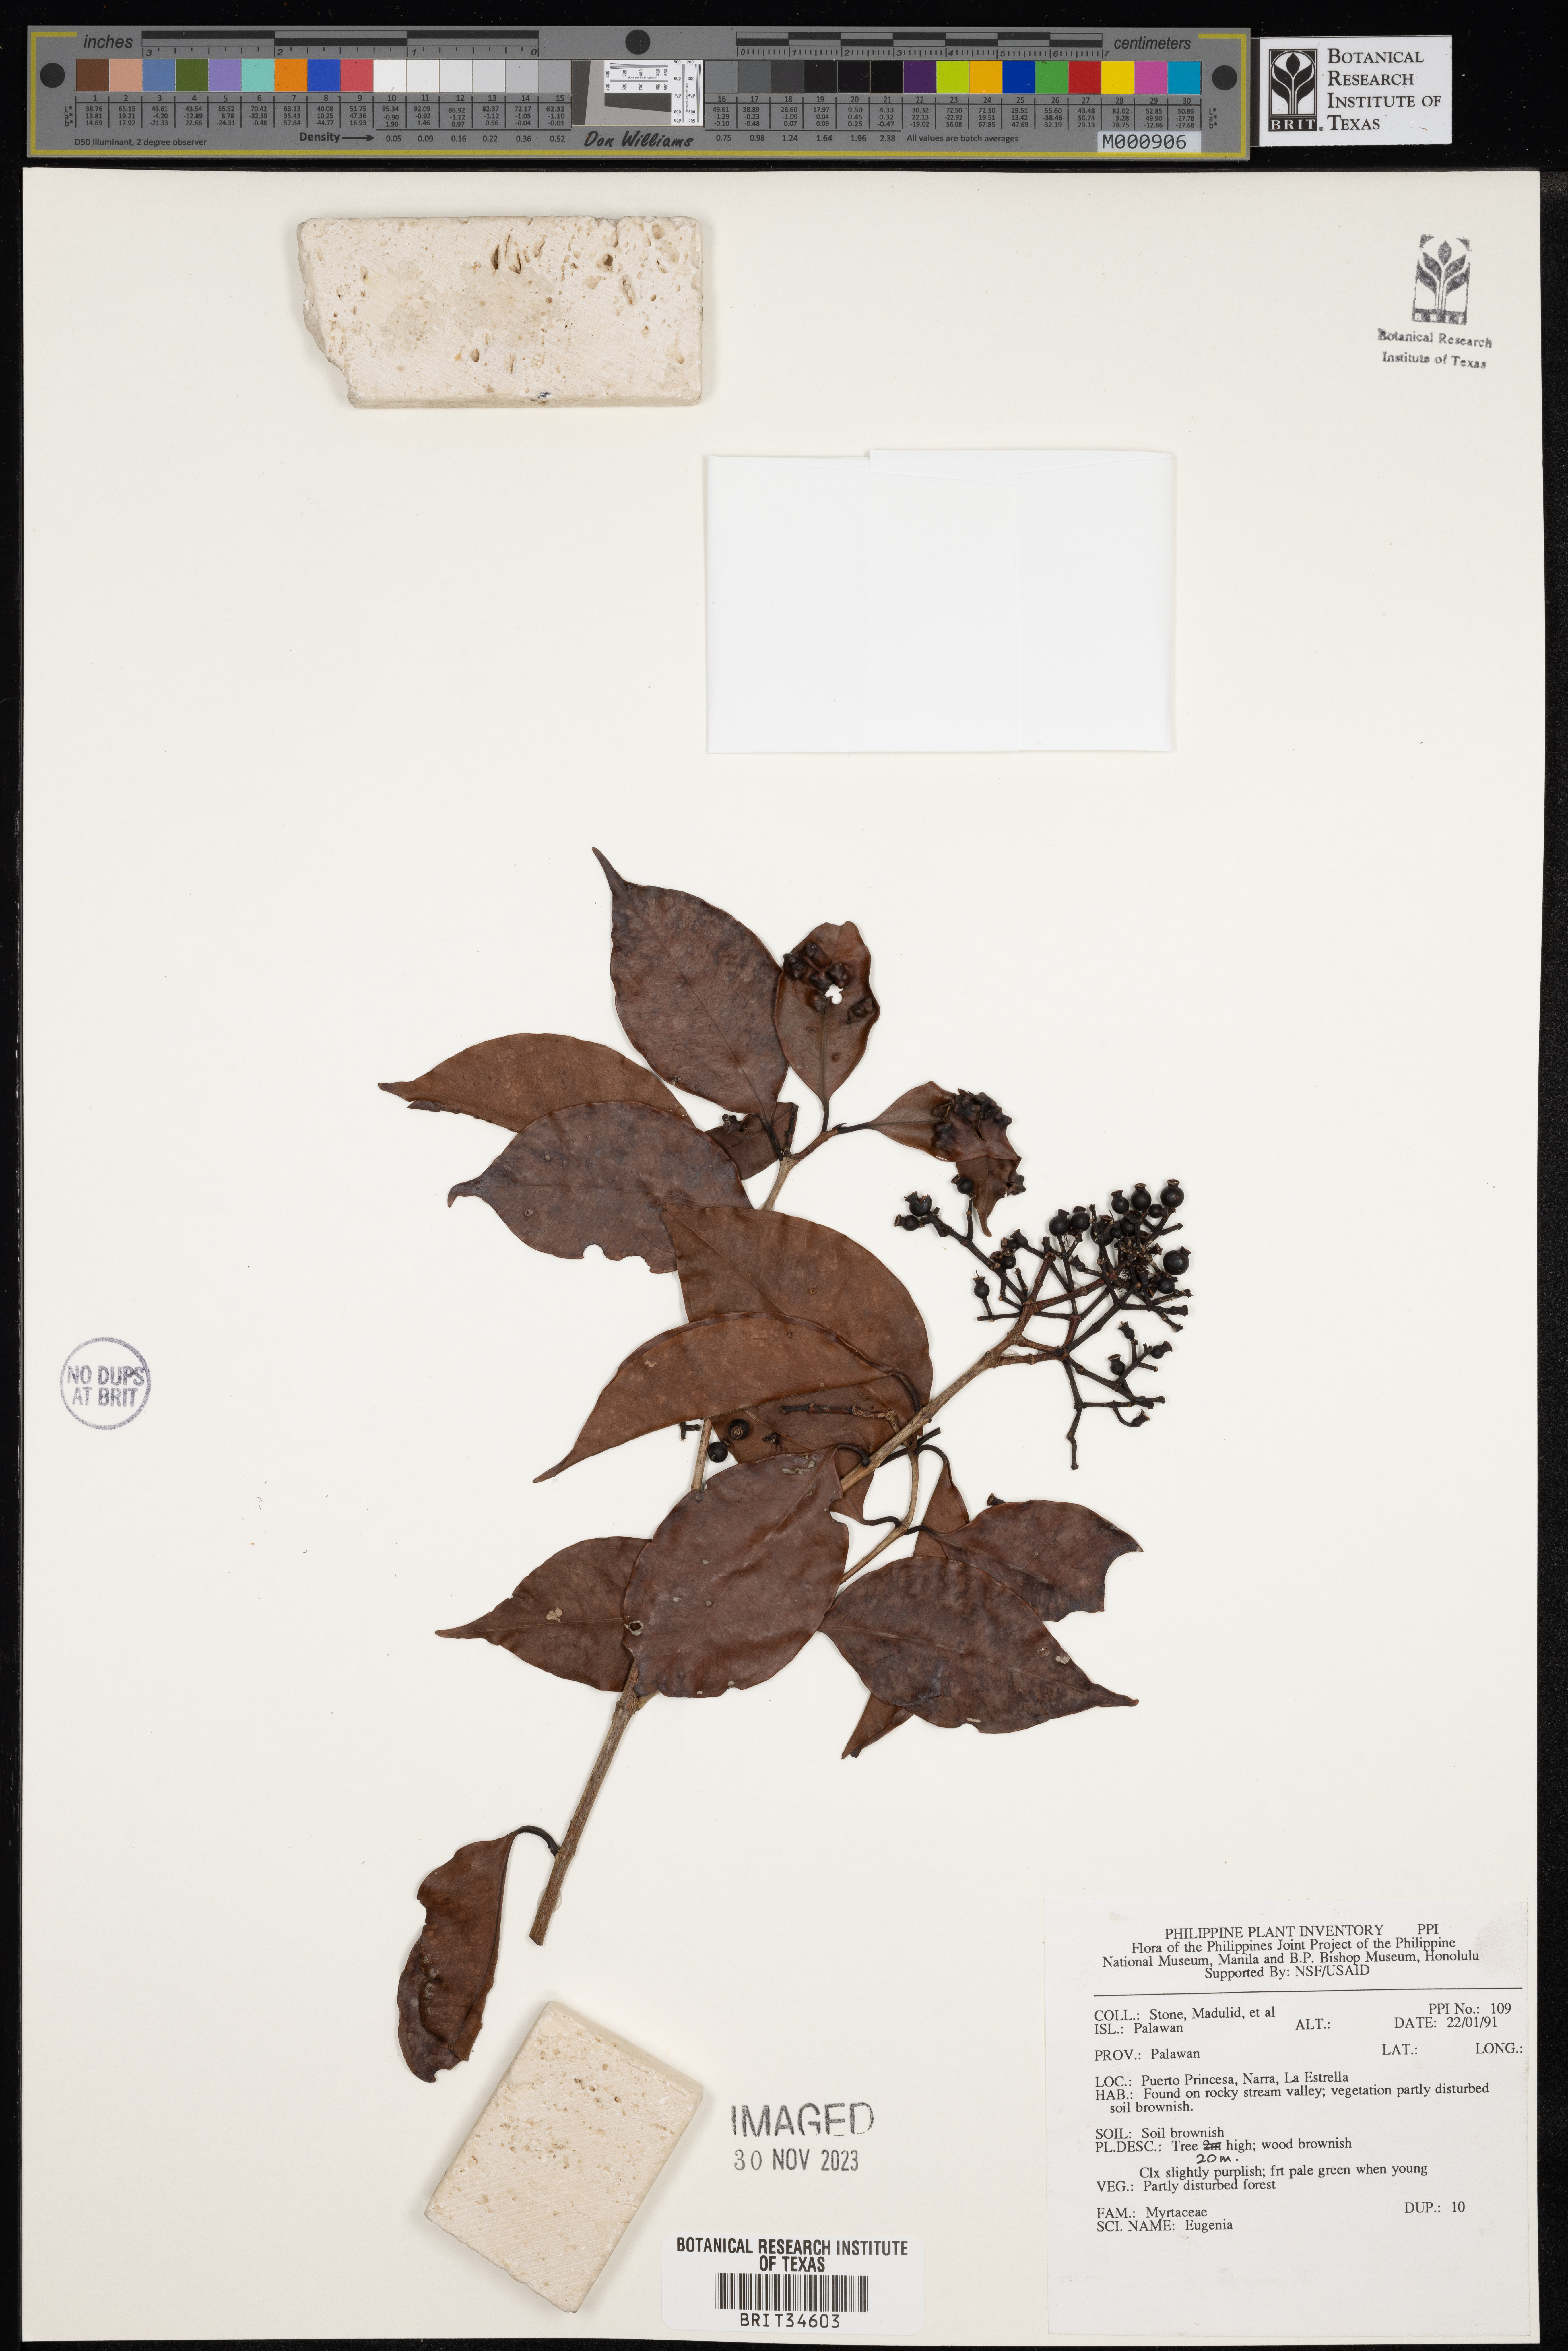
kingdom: Plantae
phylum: Tracheophyta
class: Magnoliopsida
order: Myrtales
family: Myrtaceae
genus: Eugenia
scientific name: Eugenia
